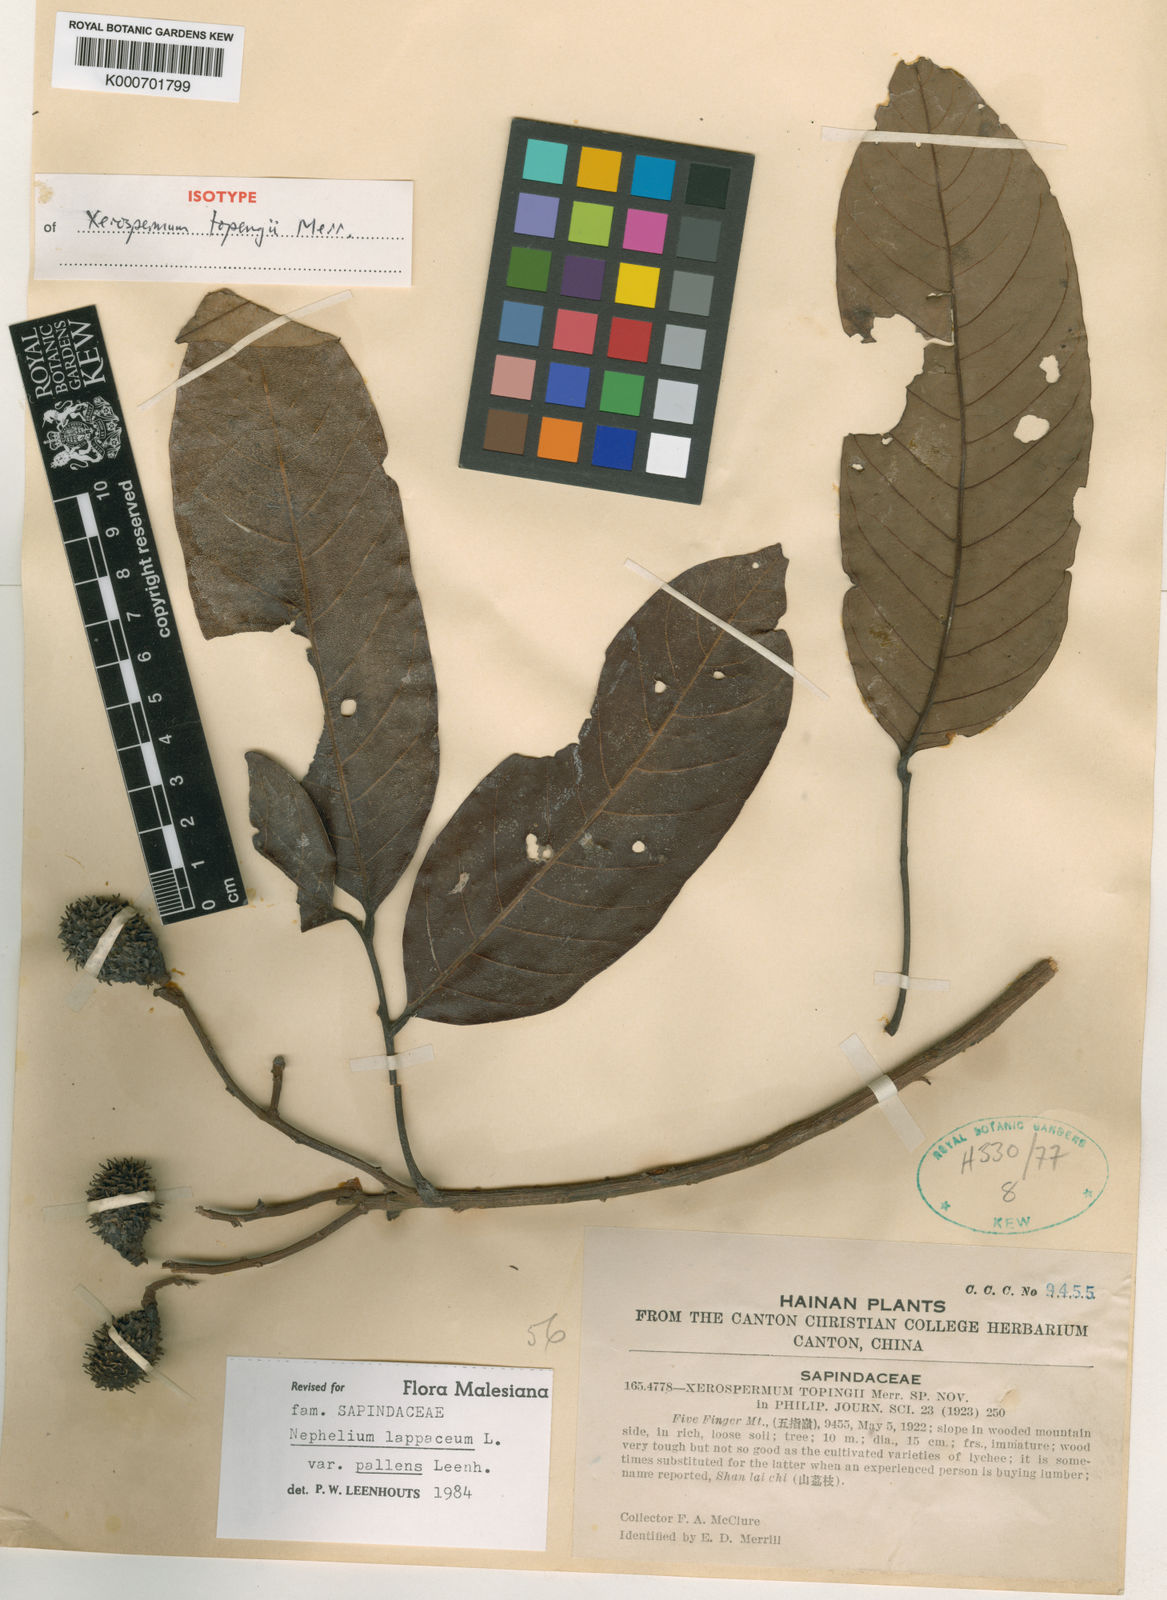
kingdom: Plantae
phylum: Tracheophyta
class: Magnoliopsida
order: Sapindales
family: Sapindaceae
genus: Nephelium
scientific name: Nephelium lappaceum
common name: Rambutan
